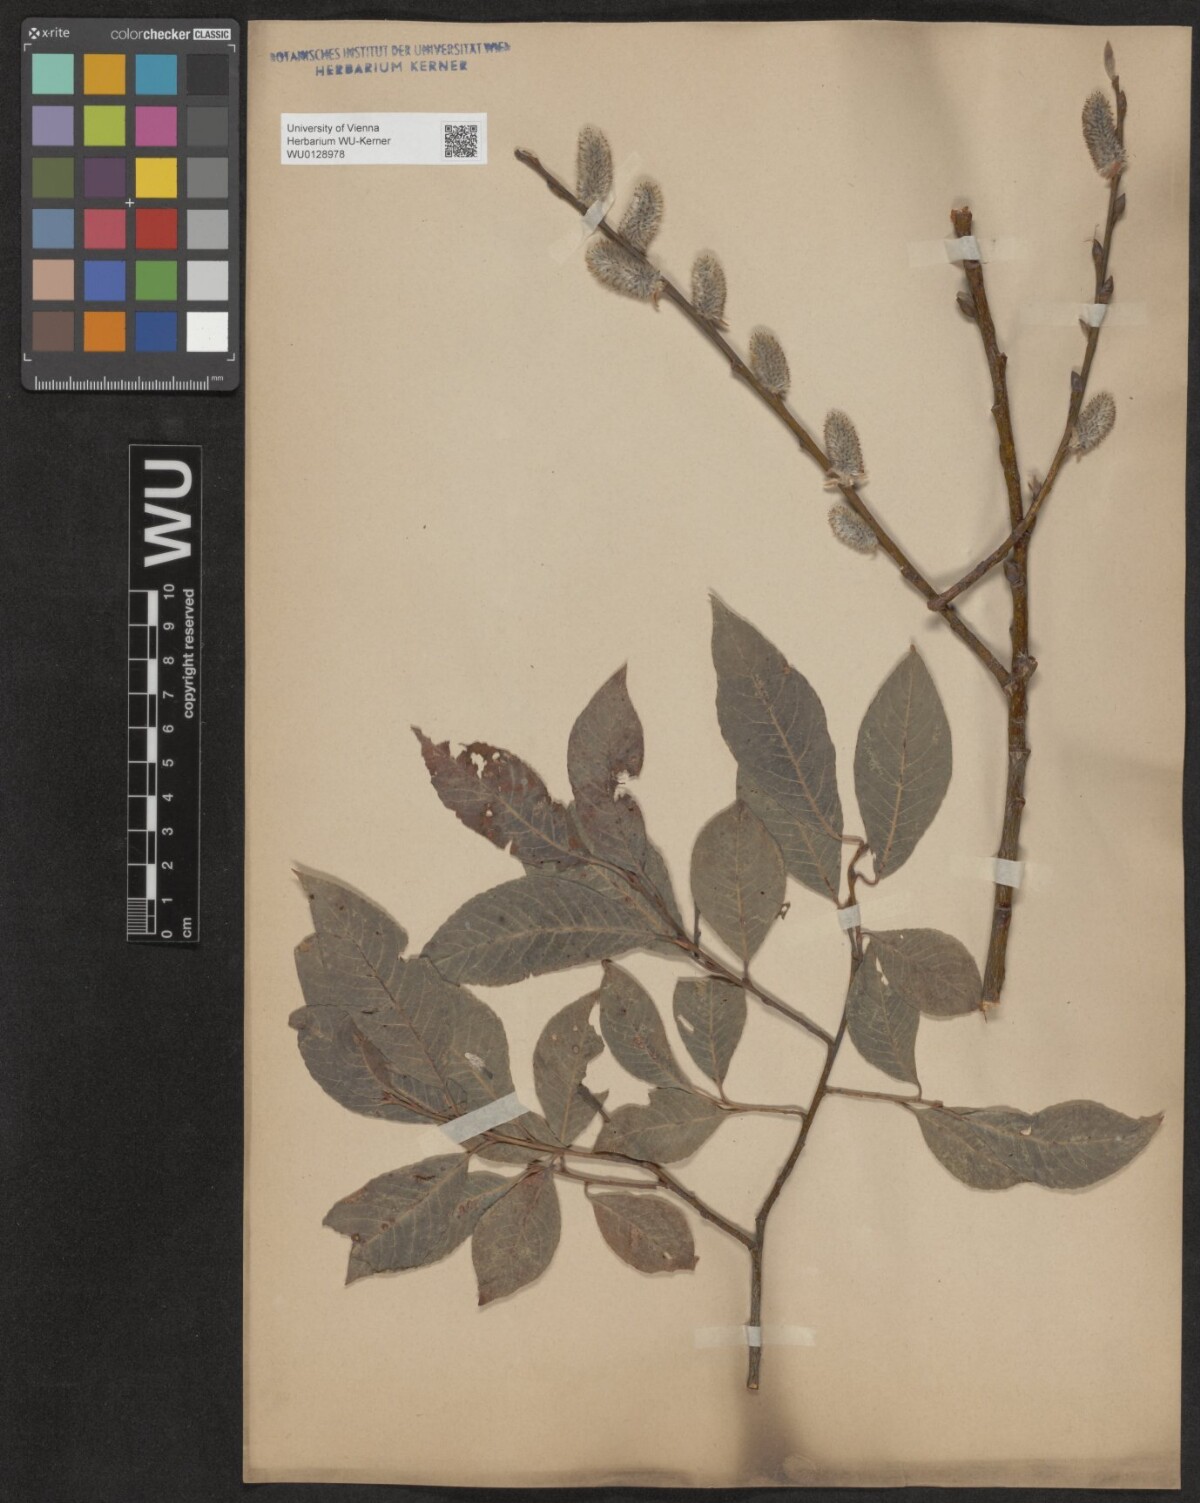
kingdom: Plantae
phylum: Tracheophyta
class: Magnoliopsida
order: Malpighiales
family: Salicaceae
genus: Salix
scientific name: Salix erdingeri
